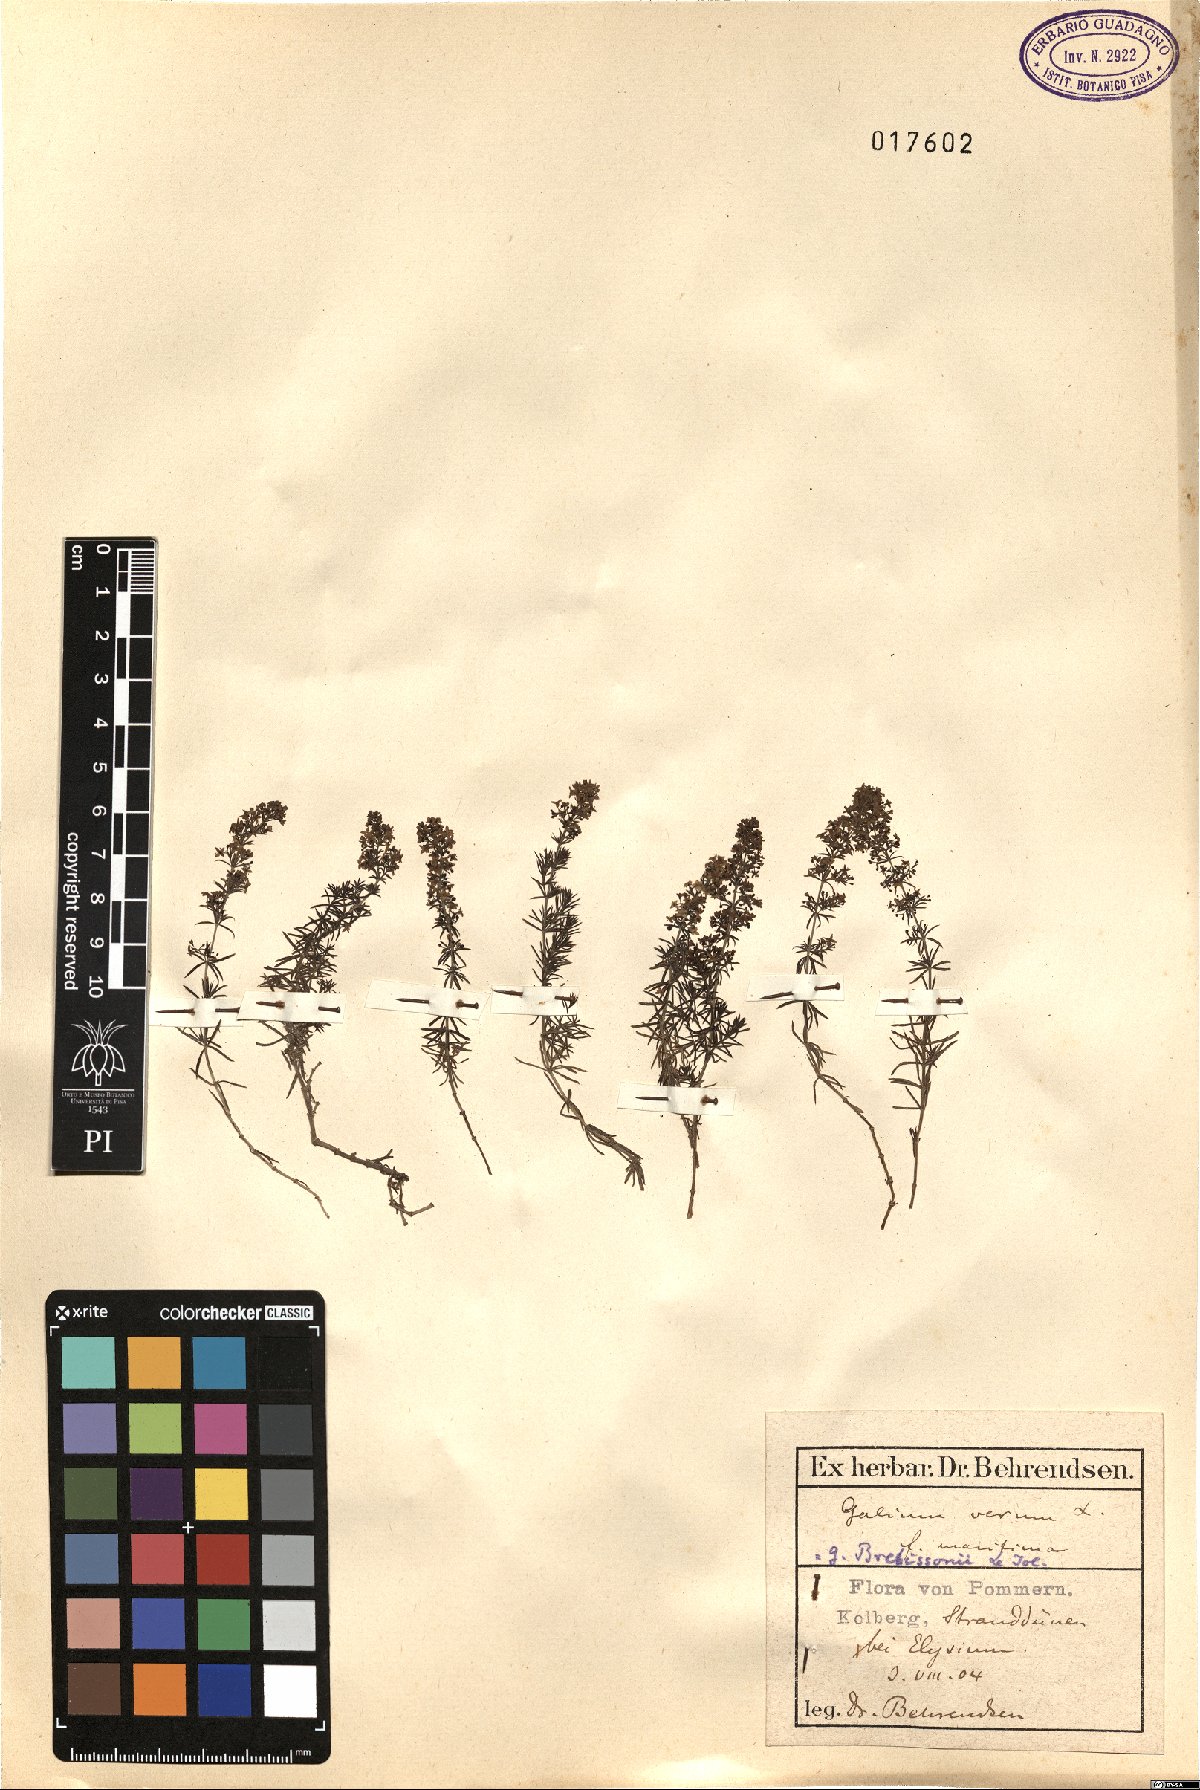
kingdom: Plantae
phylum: Tracheophyta
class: Magnoliopsida
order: Gentianales
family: Rubiaceae
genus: Galium
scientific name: Galium verum
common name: Lady's bedstraw
